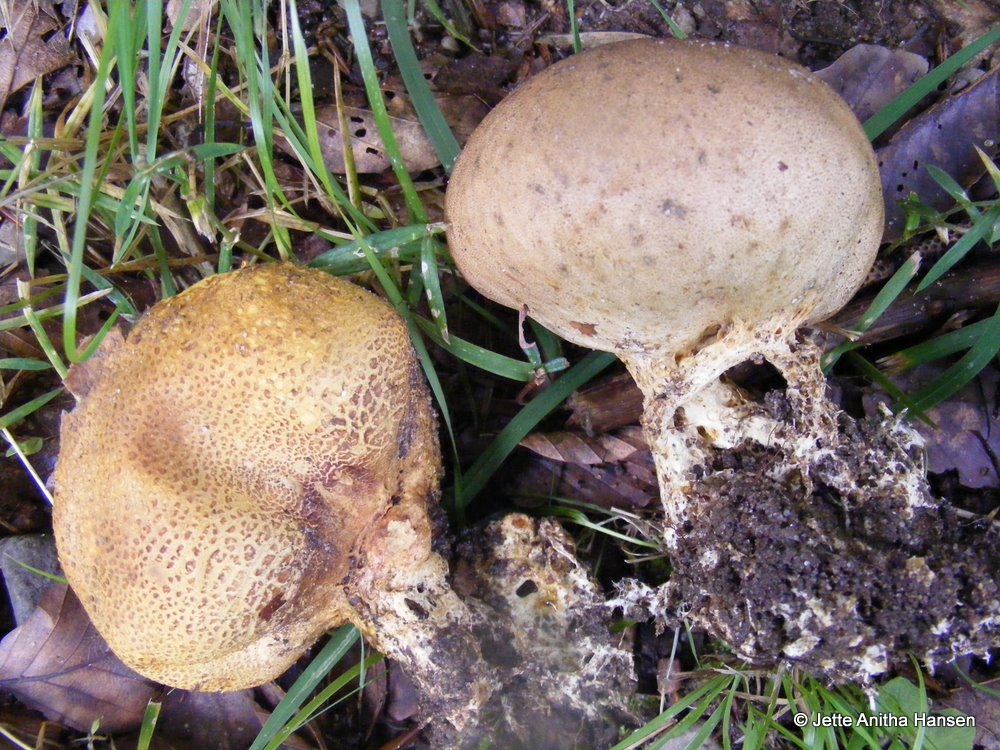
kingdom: Fungi
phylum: Basidiomycota
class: Agaricomycetes
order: Boletales
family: Sclerodermataceae
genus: Scleroderma
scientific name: Scleroderma verrucosum
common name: stilket bruskbold
